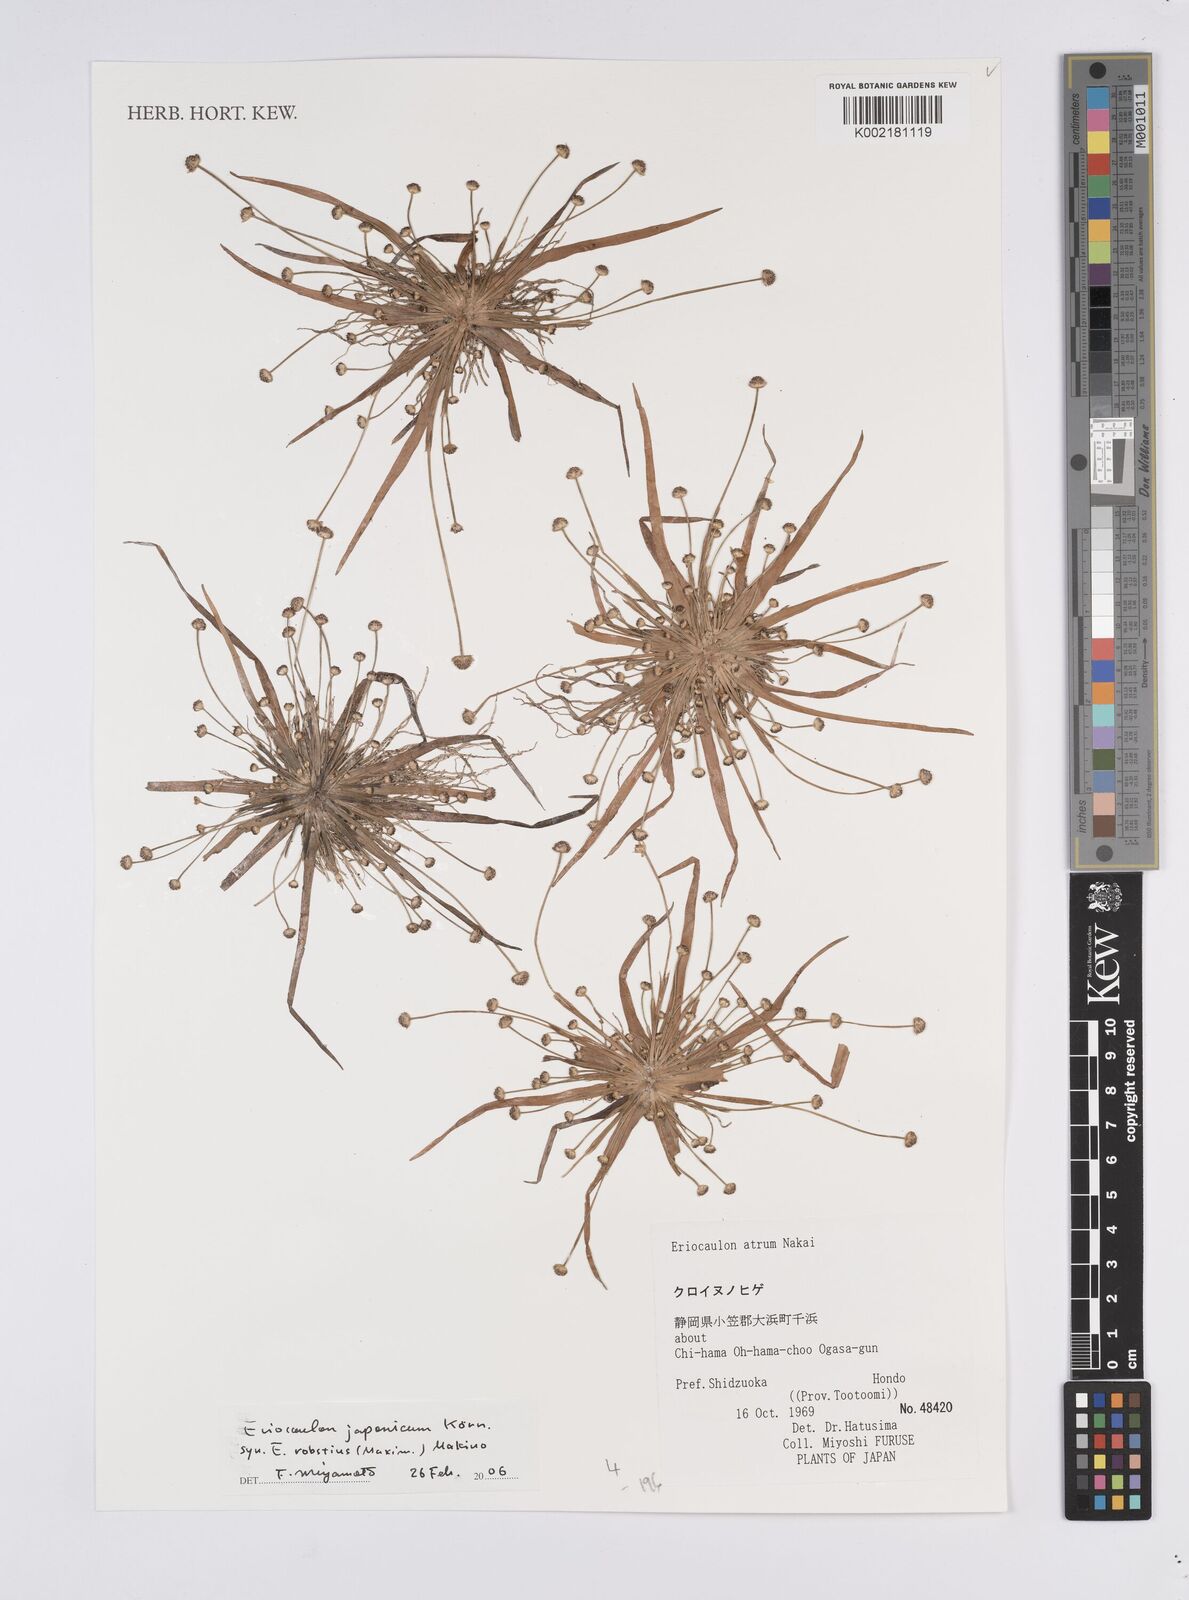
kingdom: Plantae
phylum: Tracheophyta
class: Liliopsida
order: Poales
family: Eriocaulaceae
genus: Eriocaulon
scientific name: Eriocaulon atrum
